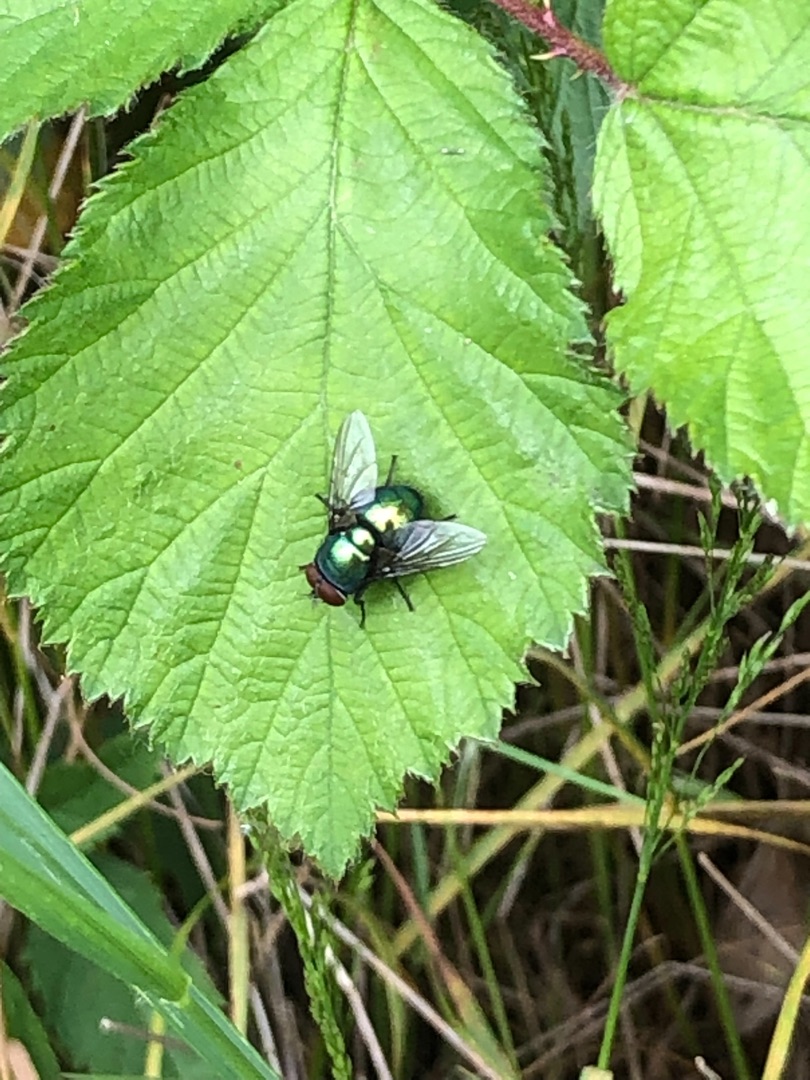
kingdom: Animalia
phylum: Arthropoda
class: Insecta
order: Diptera
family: Calliphoridae
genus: Lucilia
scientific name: Lucilia
